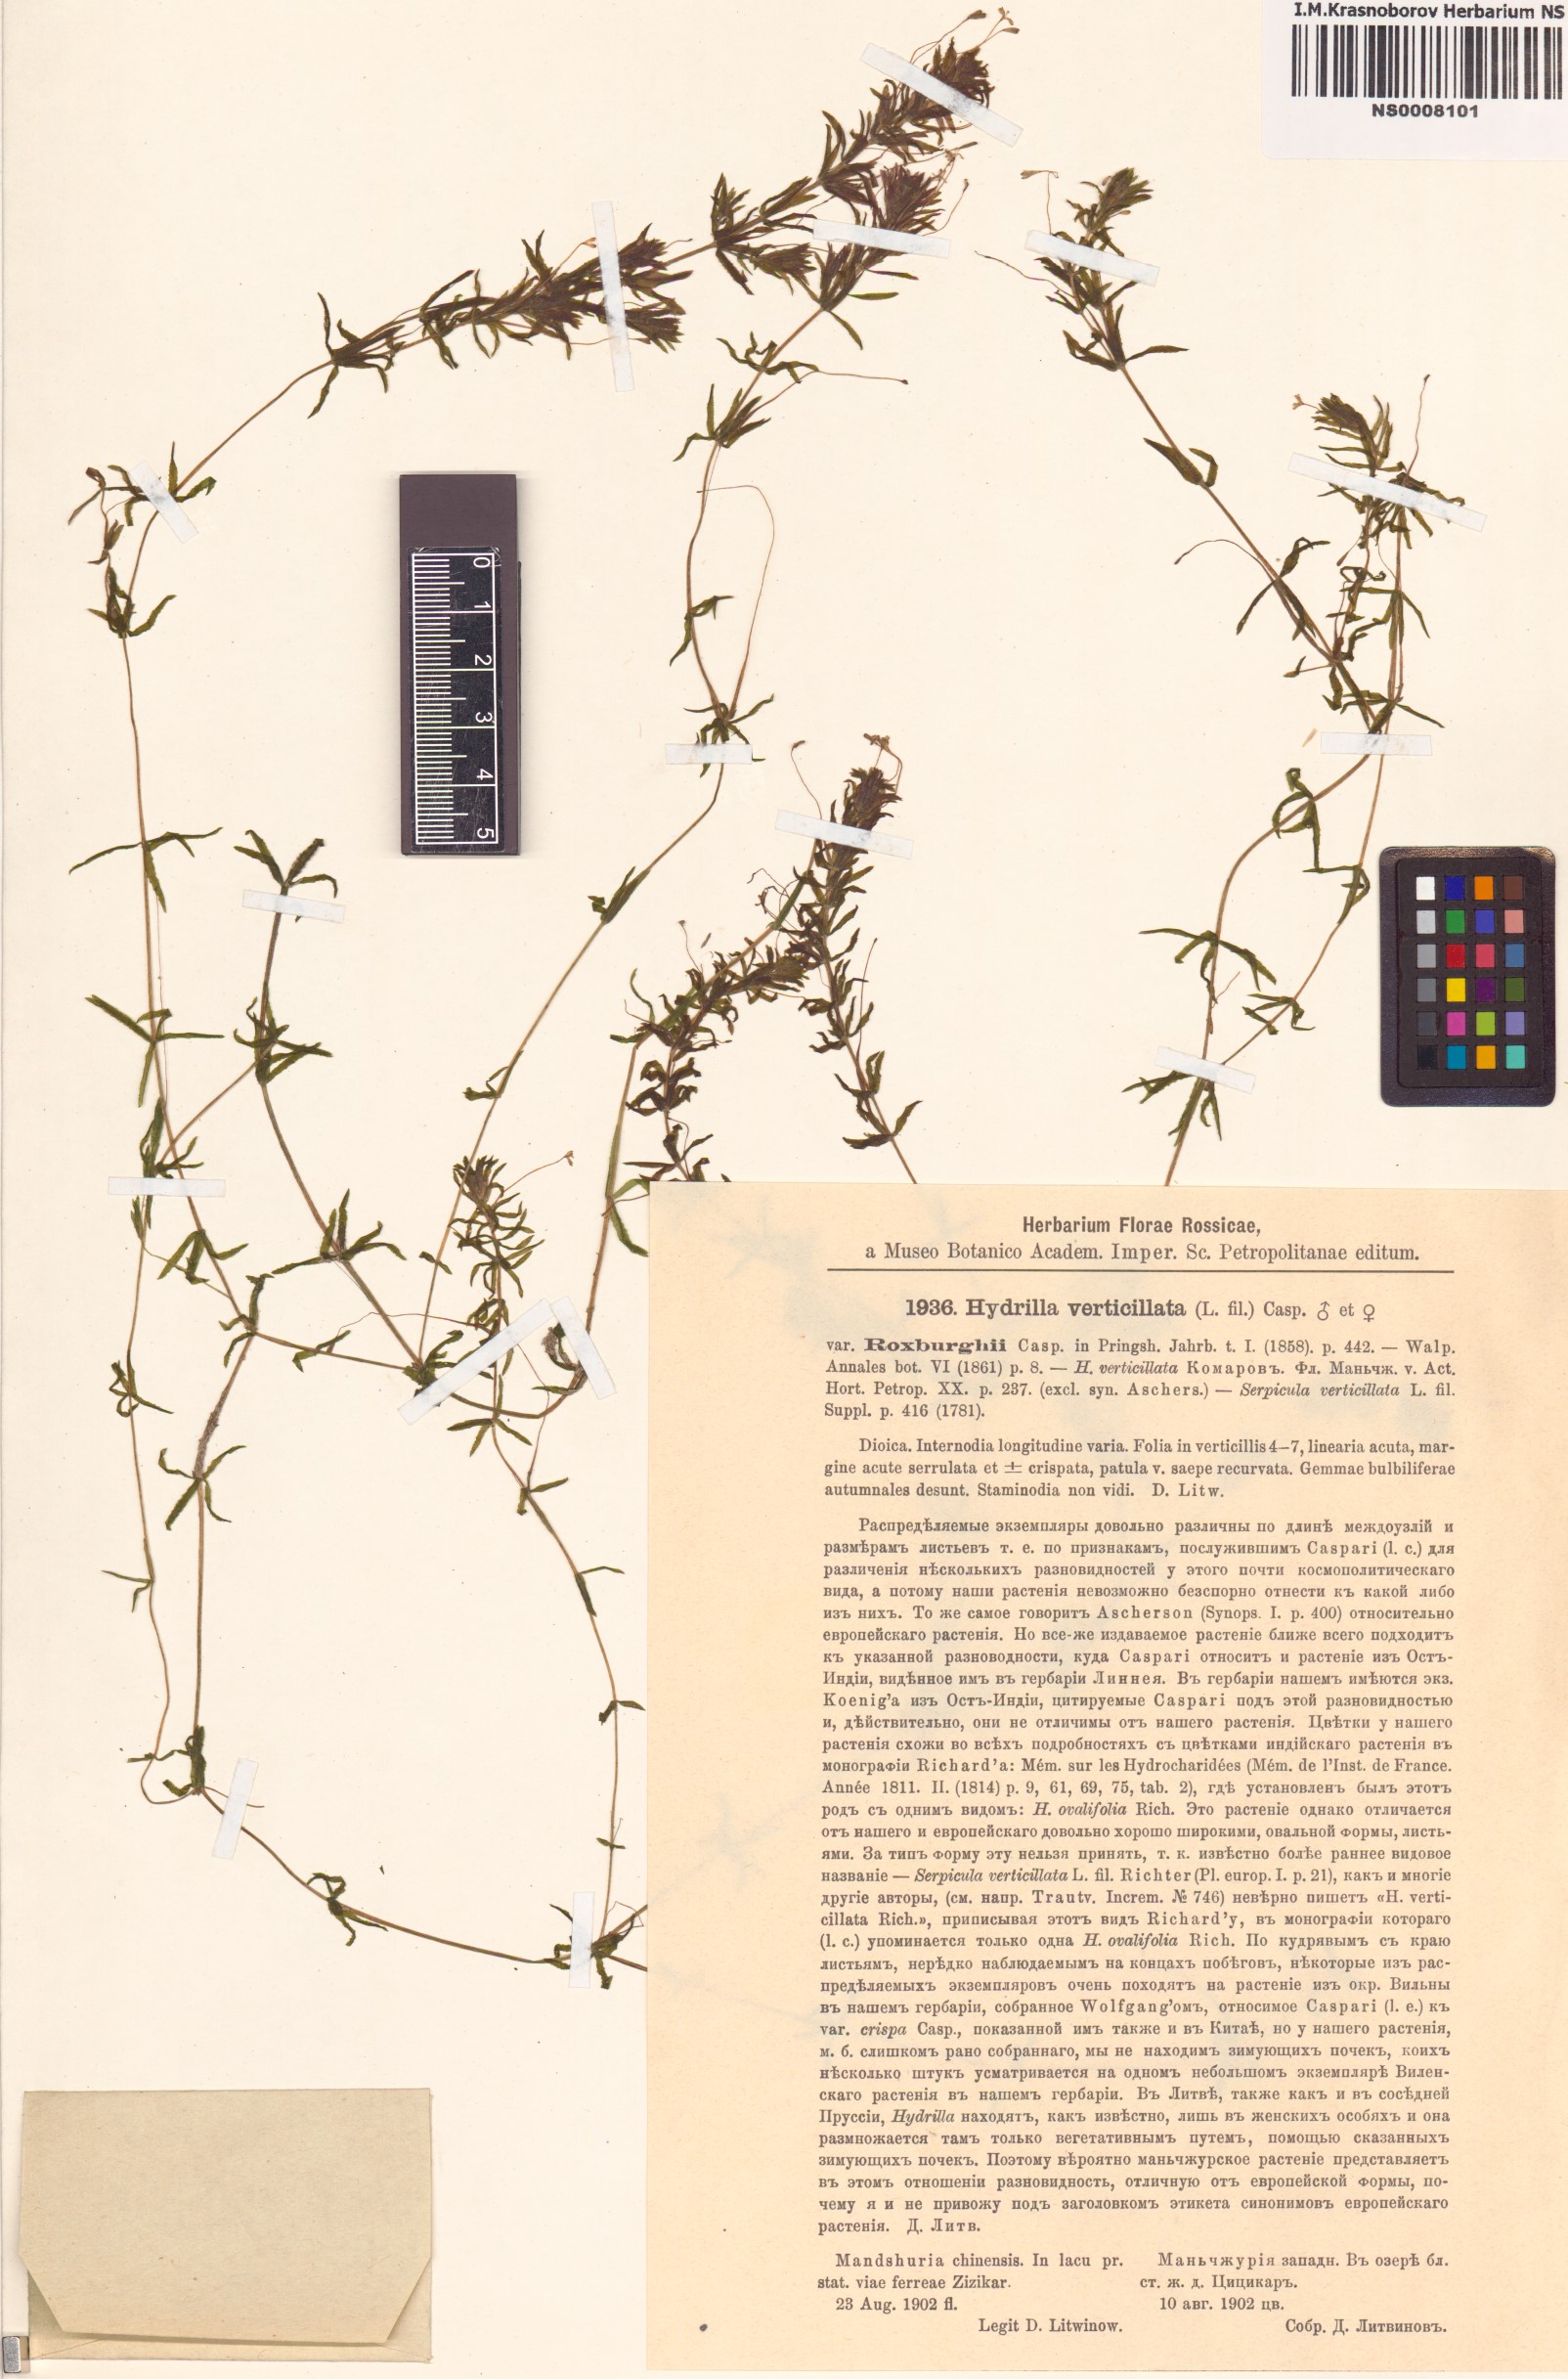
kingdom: Plantae
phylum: Tracheophyta
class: Liliopsida
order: Alismatales
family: Hydrocharitaceae
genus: Hydrilla
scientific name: Hydrilla verticillata
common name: Florida-elodea
